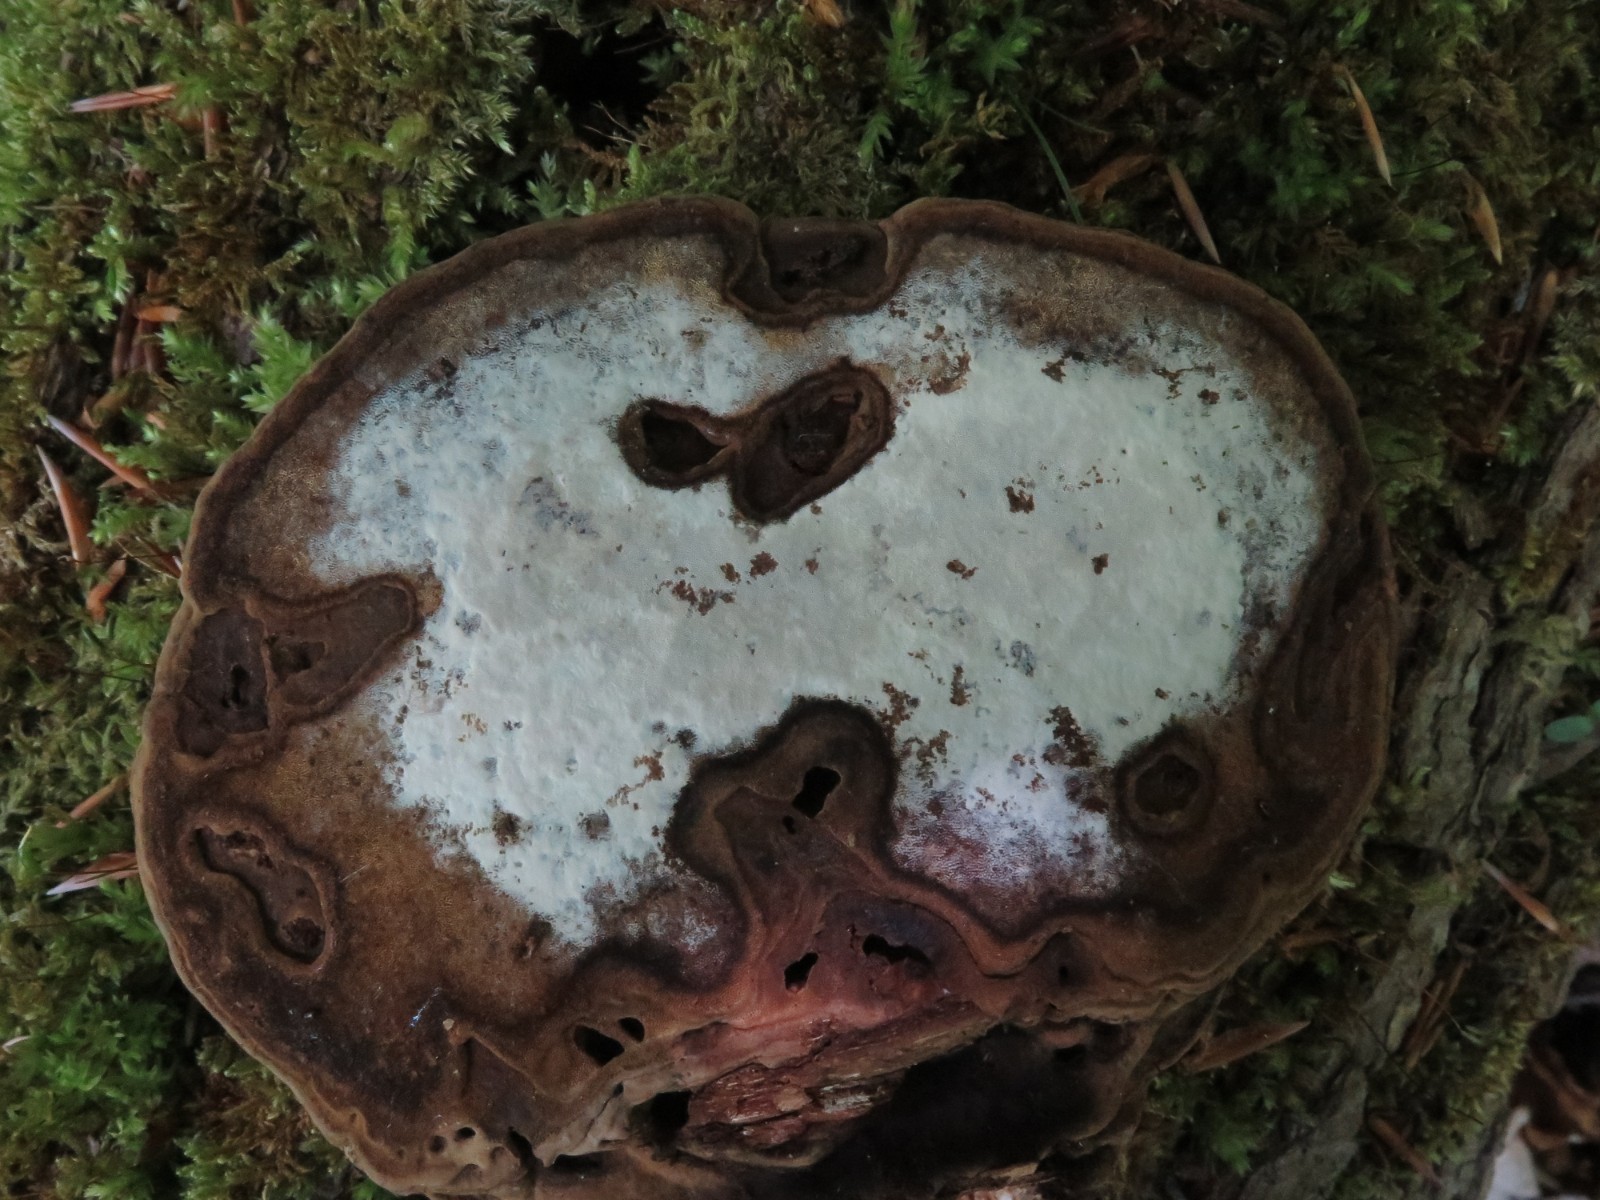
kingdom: Fungi
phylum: Basidiomycota
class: Agaricomycetes
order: Cantharellales
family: Hydnaceae
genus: Sistotrema
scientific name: Sistotrema brinkmannii
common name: bønnesporet kroneskorpe
